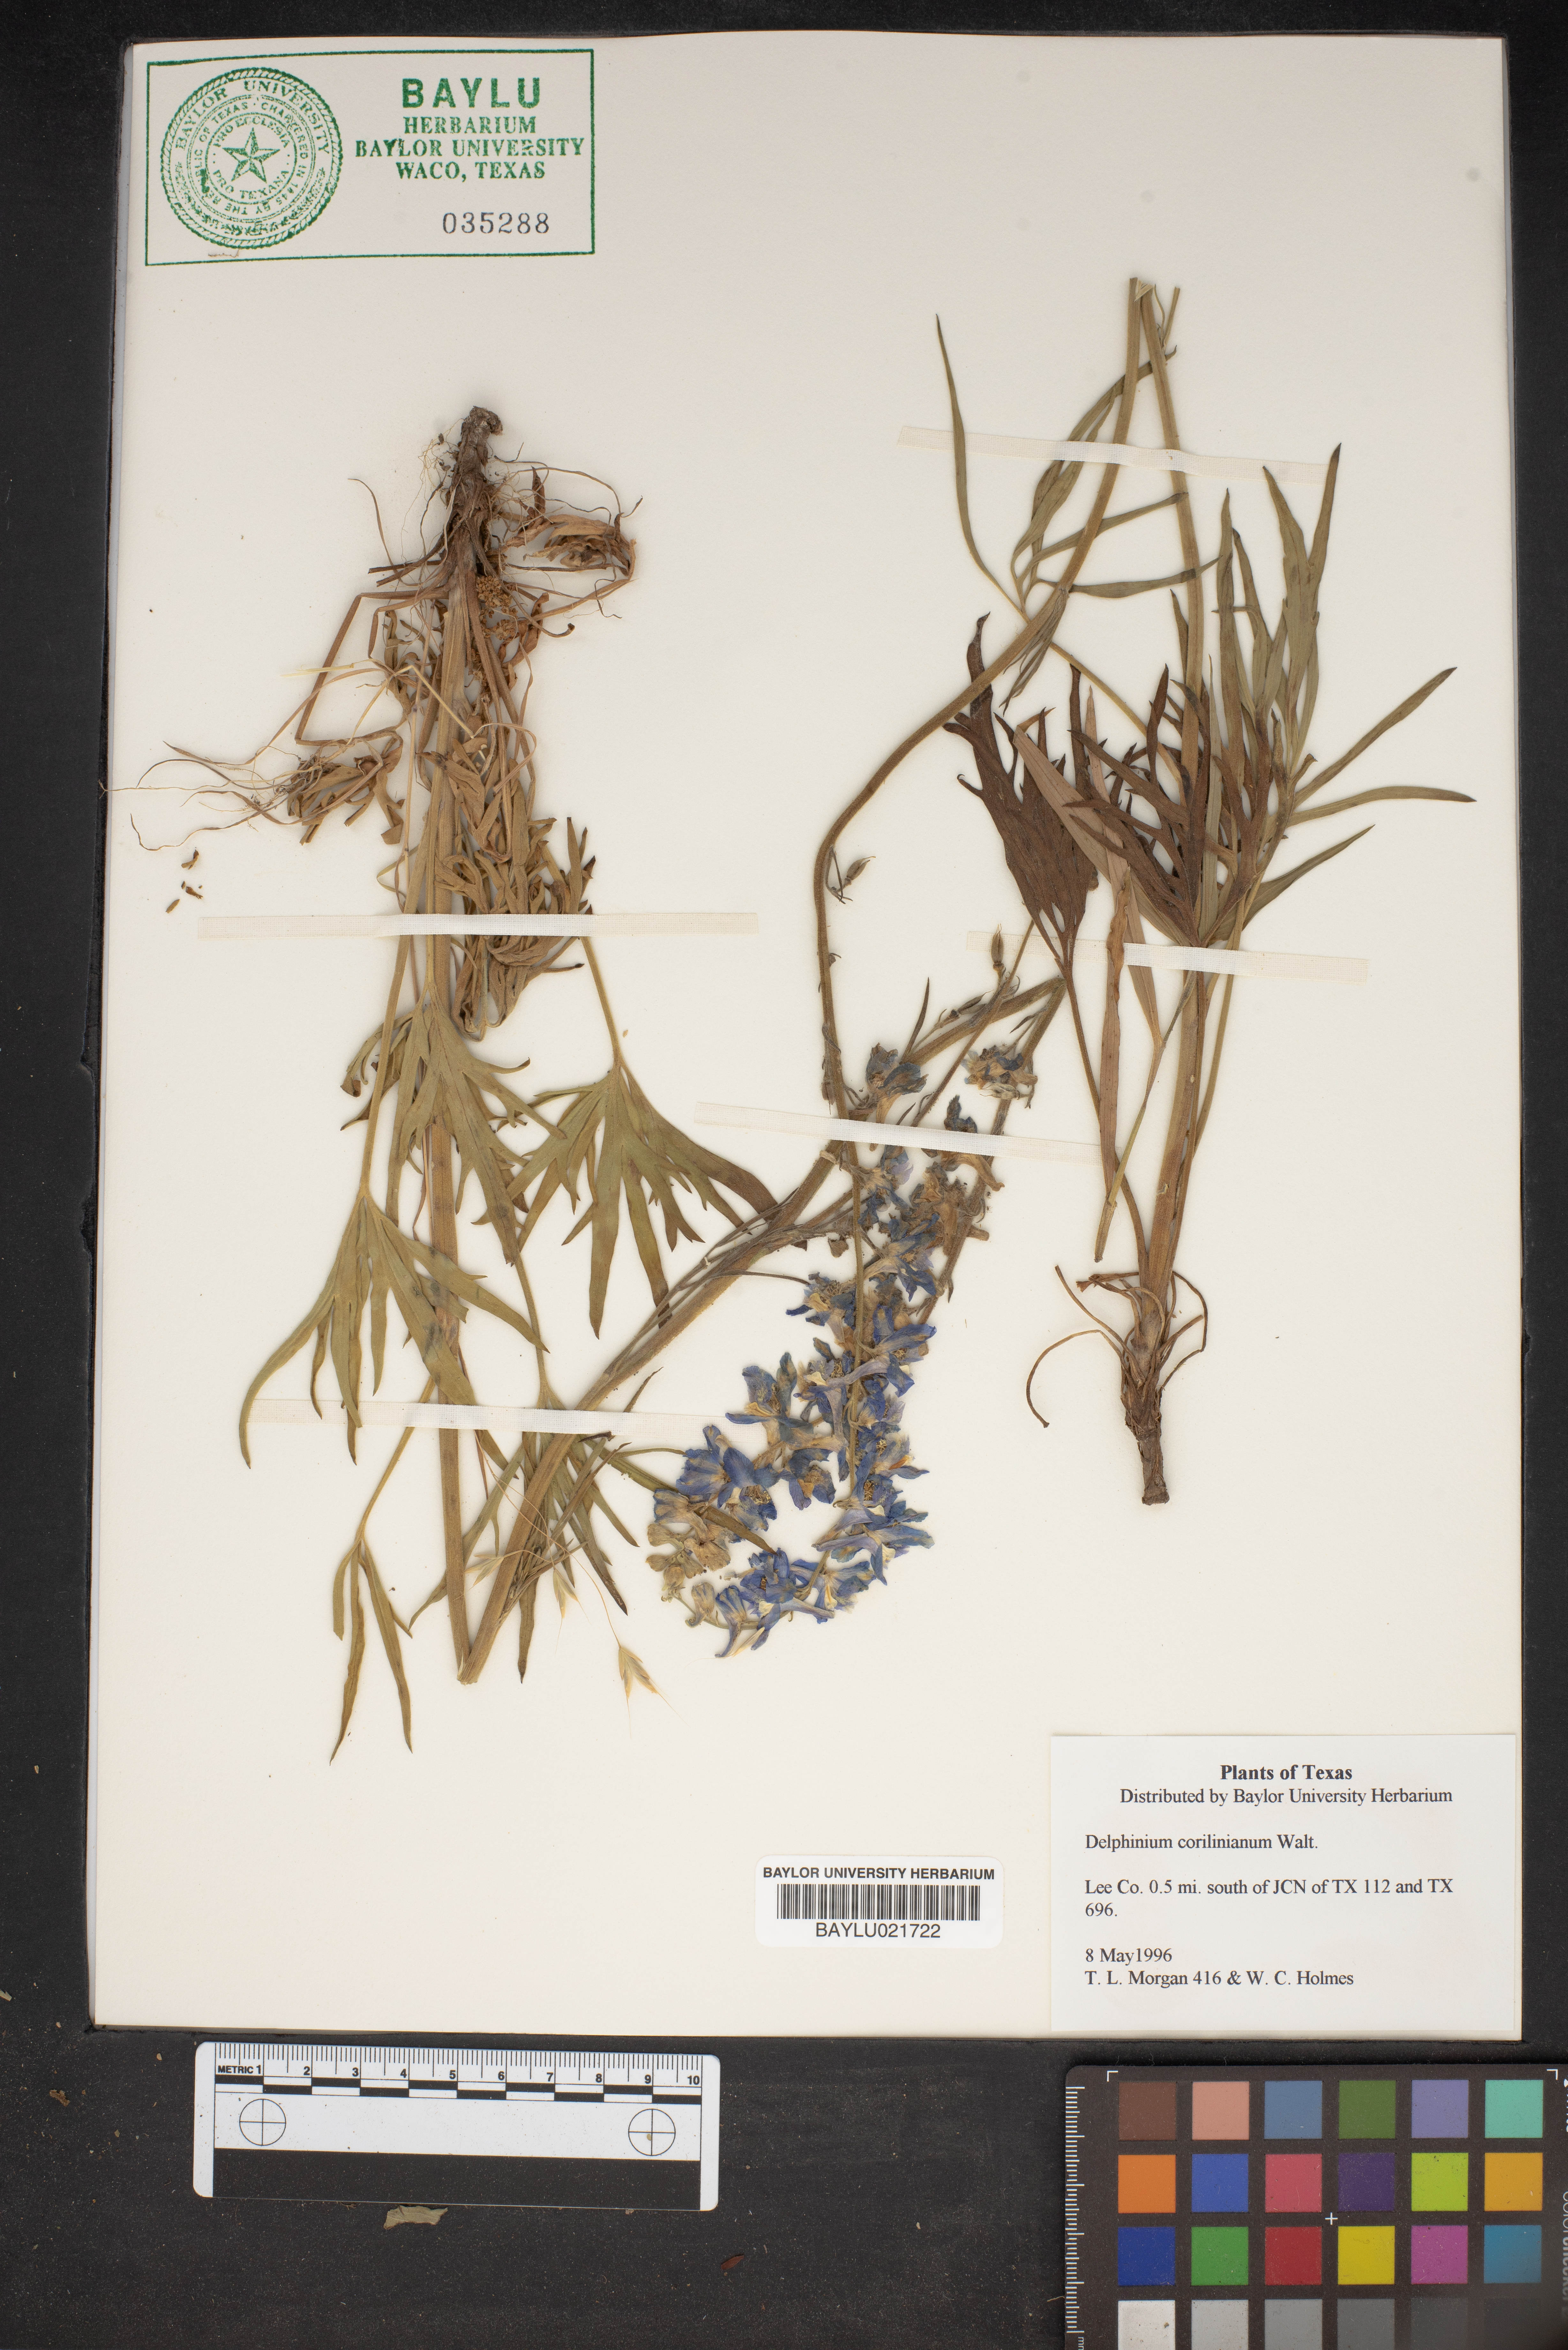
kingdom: Plantae
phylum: Tracheophyta
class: Magnoliopsida
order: Ranunculales
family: Ranunculaceae
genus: Delphinium
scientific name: Delphinium
